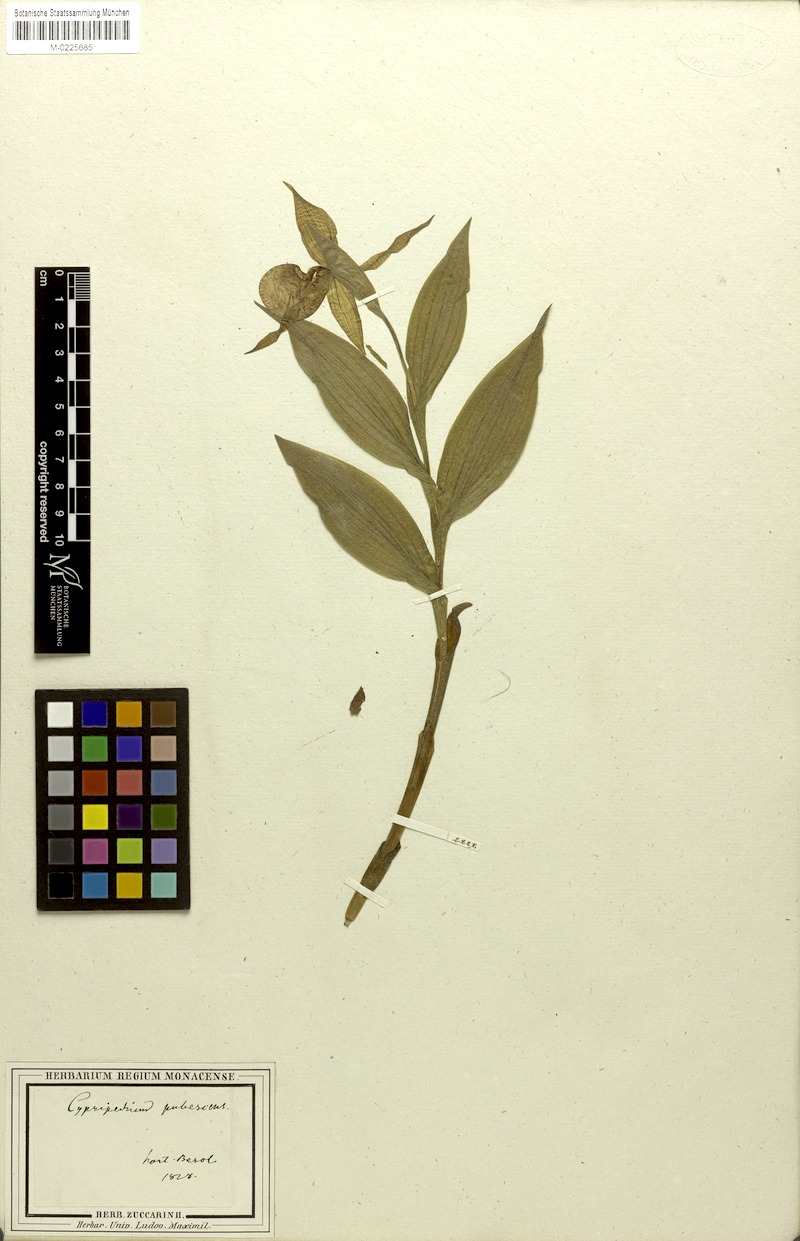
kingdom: Plantae
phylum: Tracheophyta
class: Liliopsida
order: Asparagales
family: Orchidaceae
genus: Cypripedium
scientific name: Cypripedium parviflorum
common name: American yellow lady's-slipper
